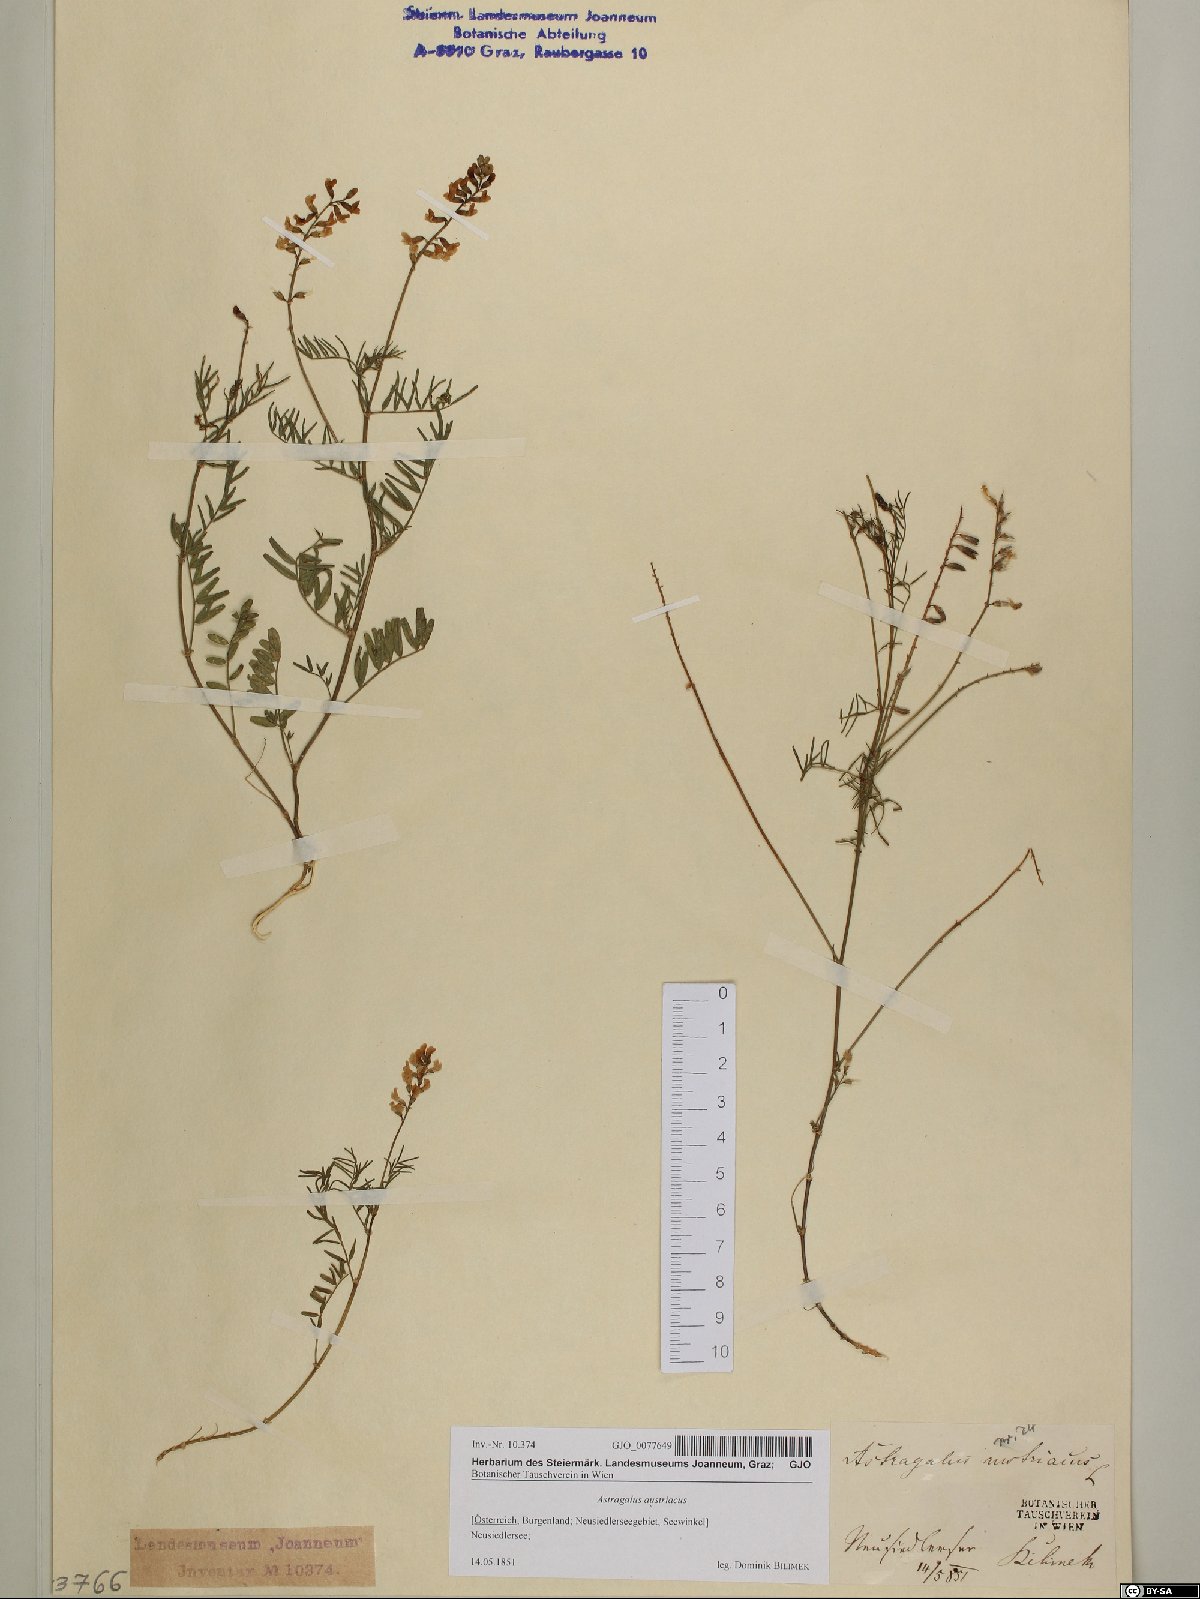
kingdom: Plantae
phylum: Tracheophyta
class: Magnoliopsida
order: Fabales
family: Fabaceae
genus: Astragalus
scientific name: Astragalus austriacus
